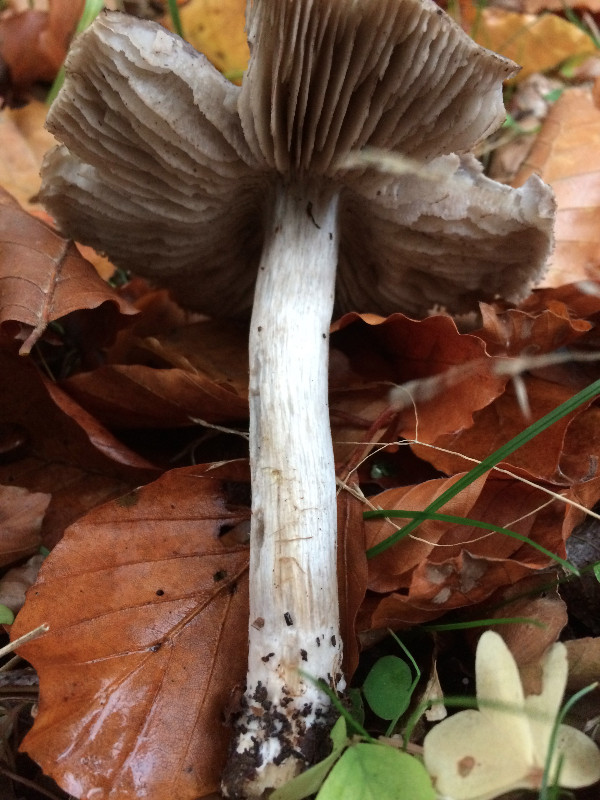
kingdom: Fungi
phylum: Basidiomycota
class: Agaricomycetes
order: Agaricales
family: Tricholomataceae
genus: Tricholoma
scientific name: Tricholoma sciodes
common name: stribet ridderhat
